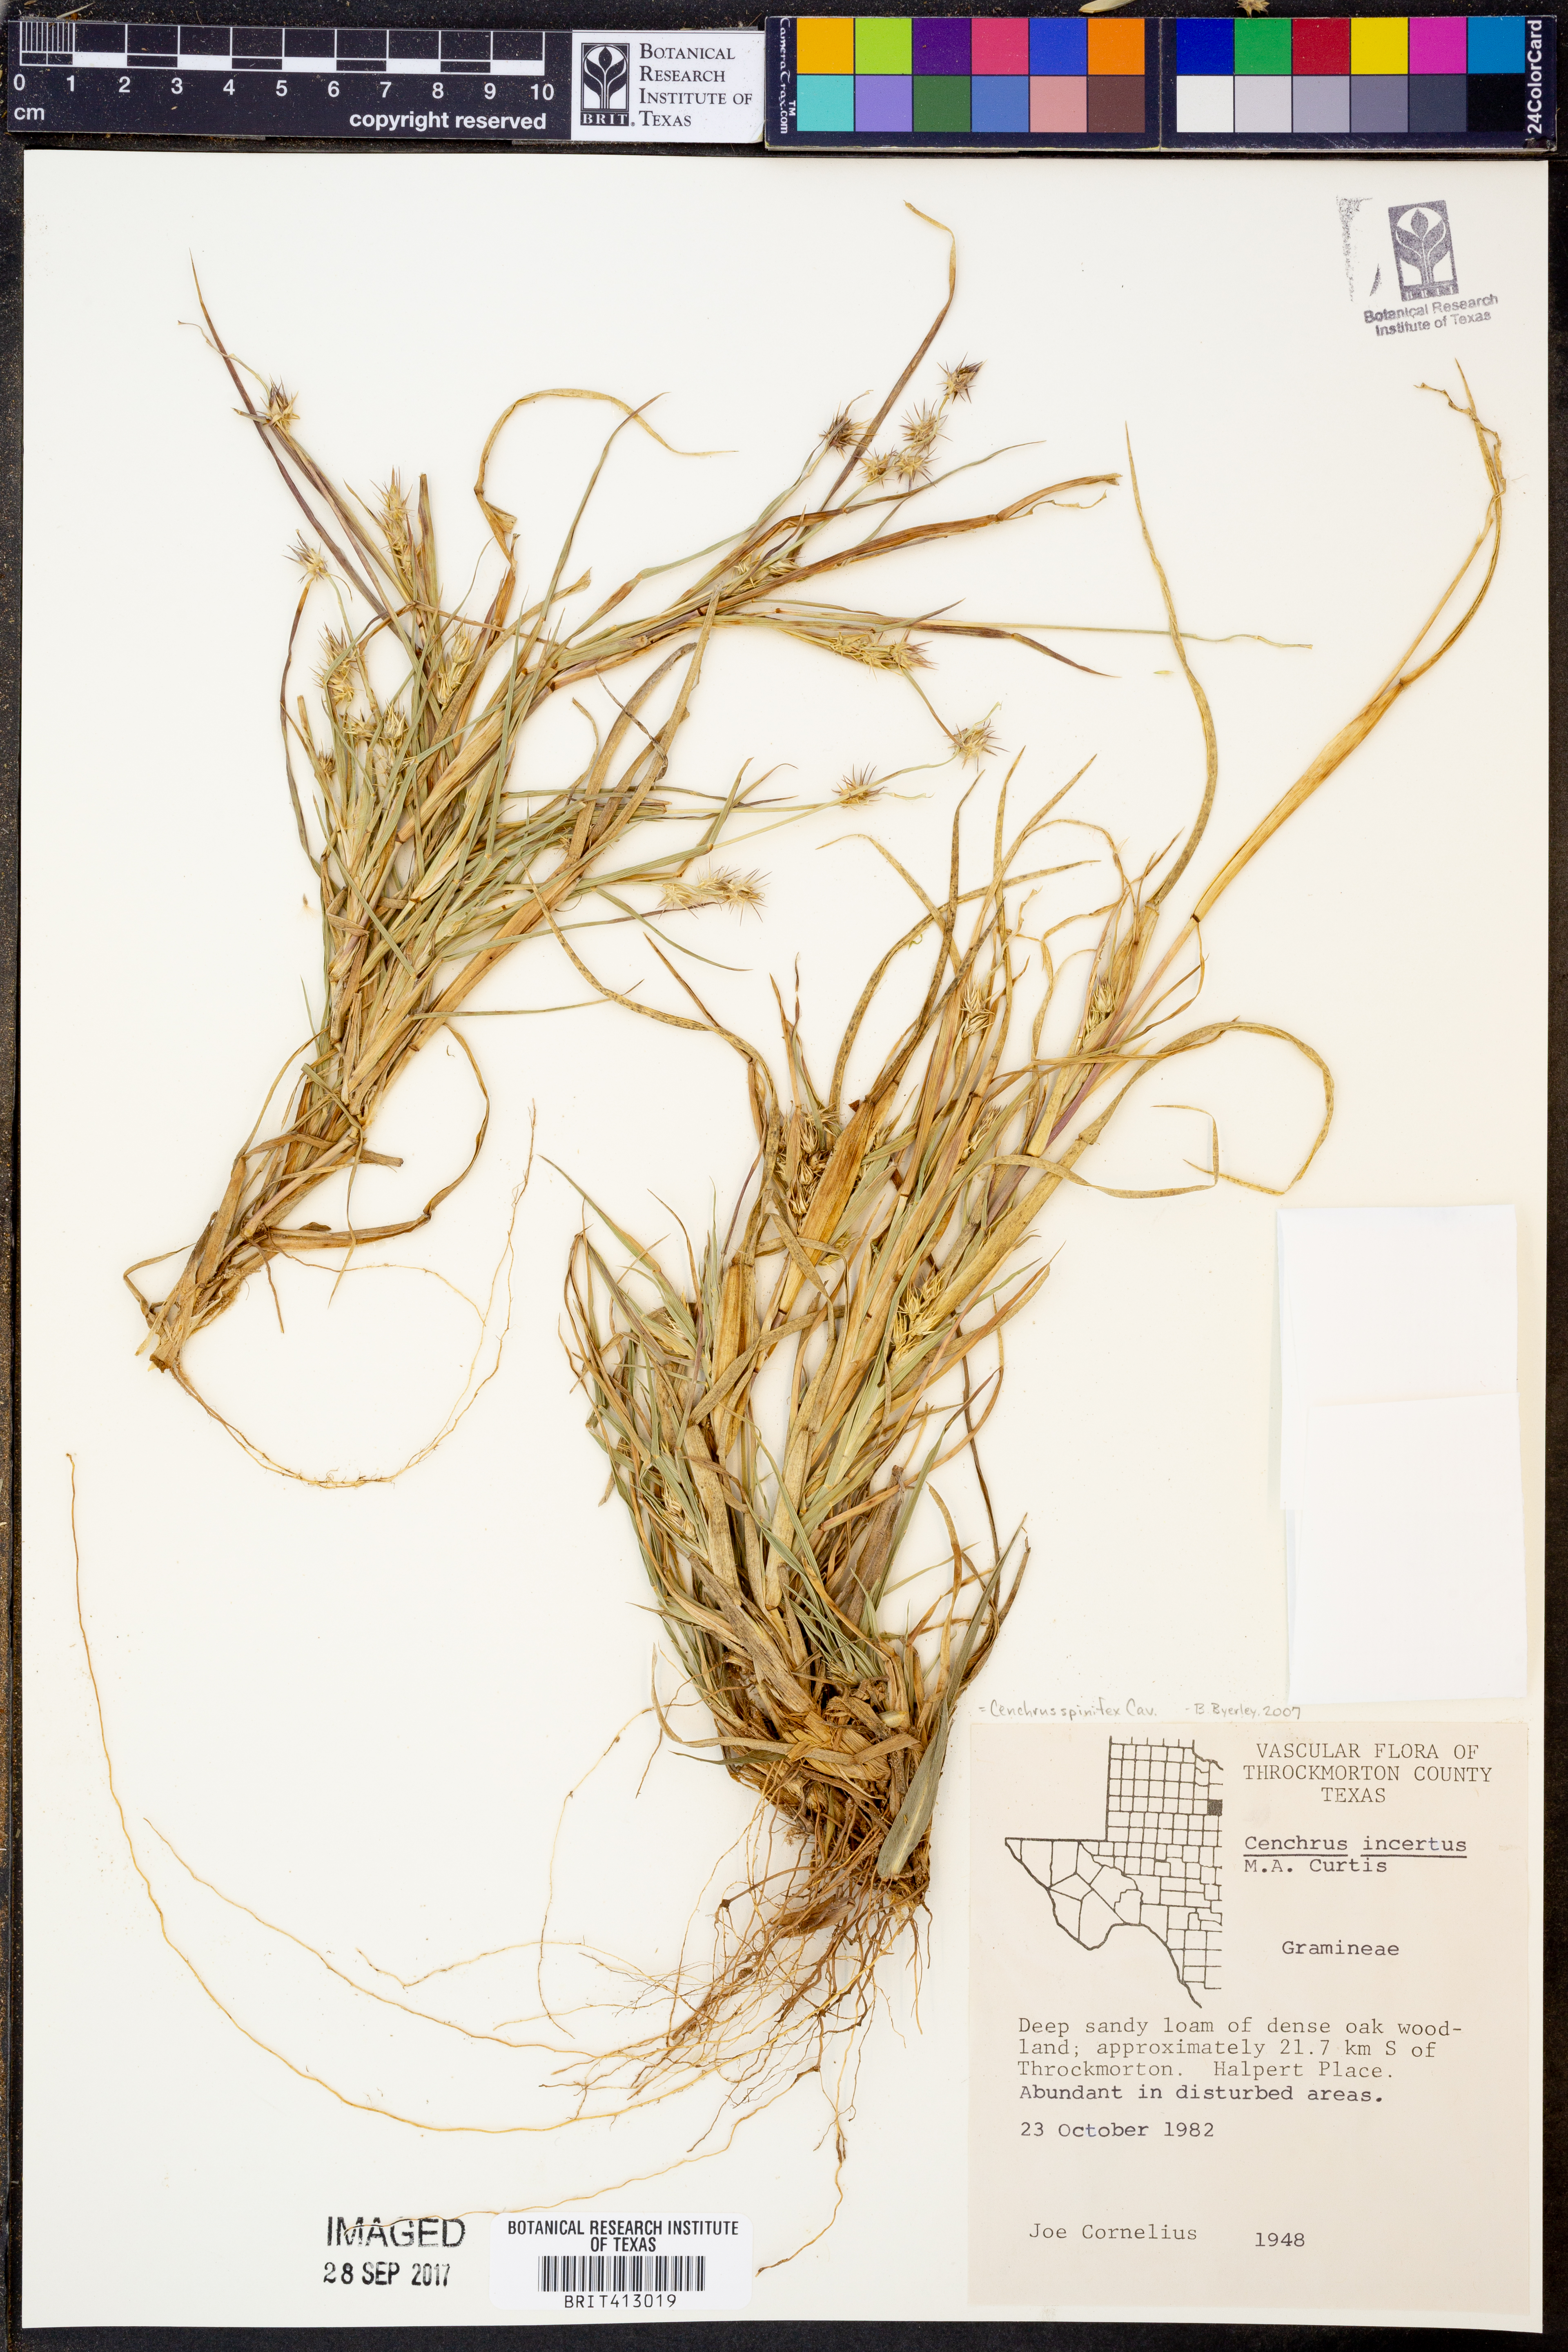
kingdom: Plantae
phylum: Tracheophyta
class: Liliopsida
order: Poales
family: Poaceae
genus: Cenchrus
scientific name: Cenchrus spinifex
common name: Coast sandbur
